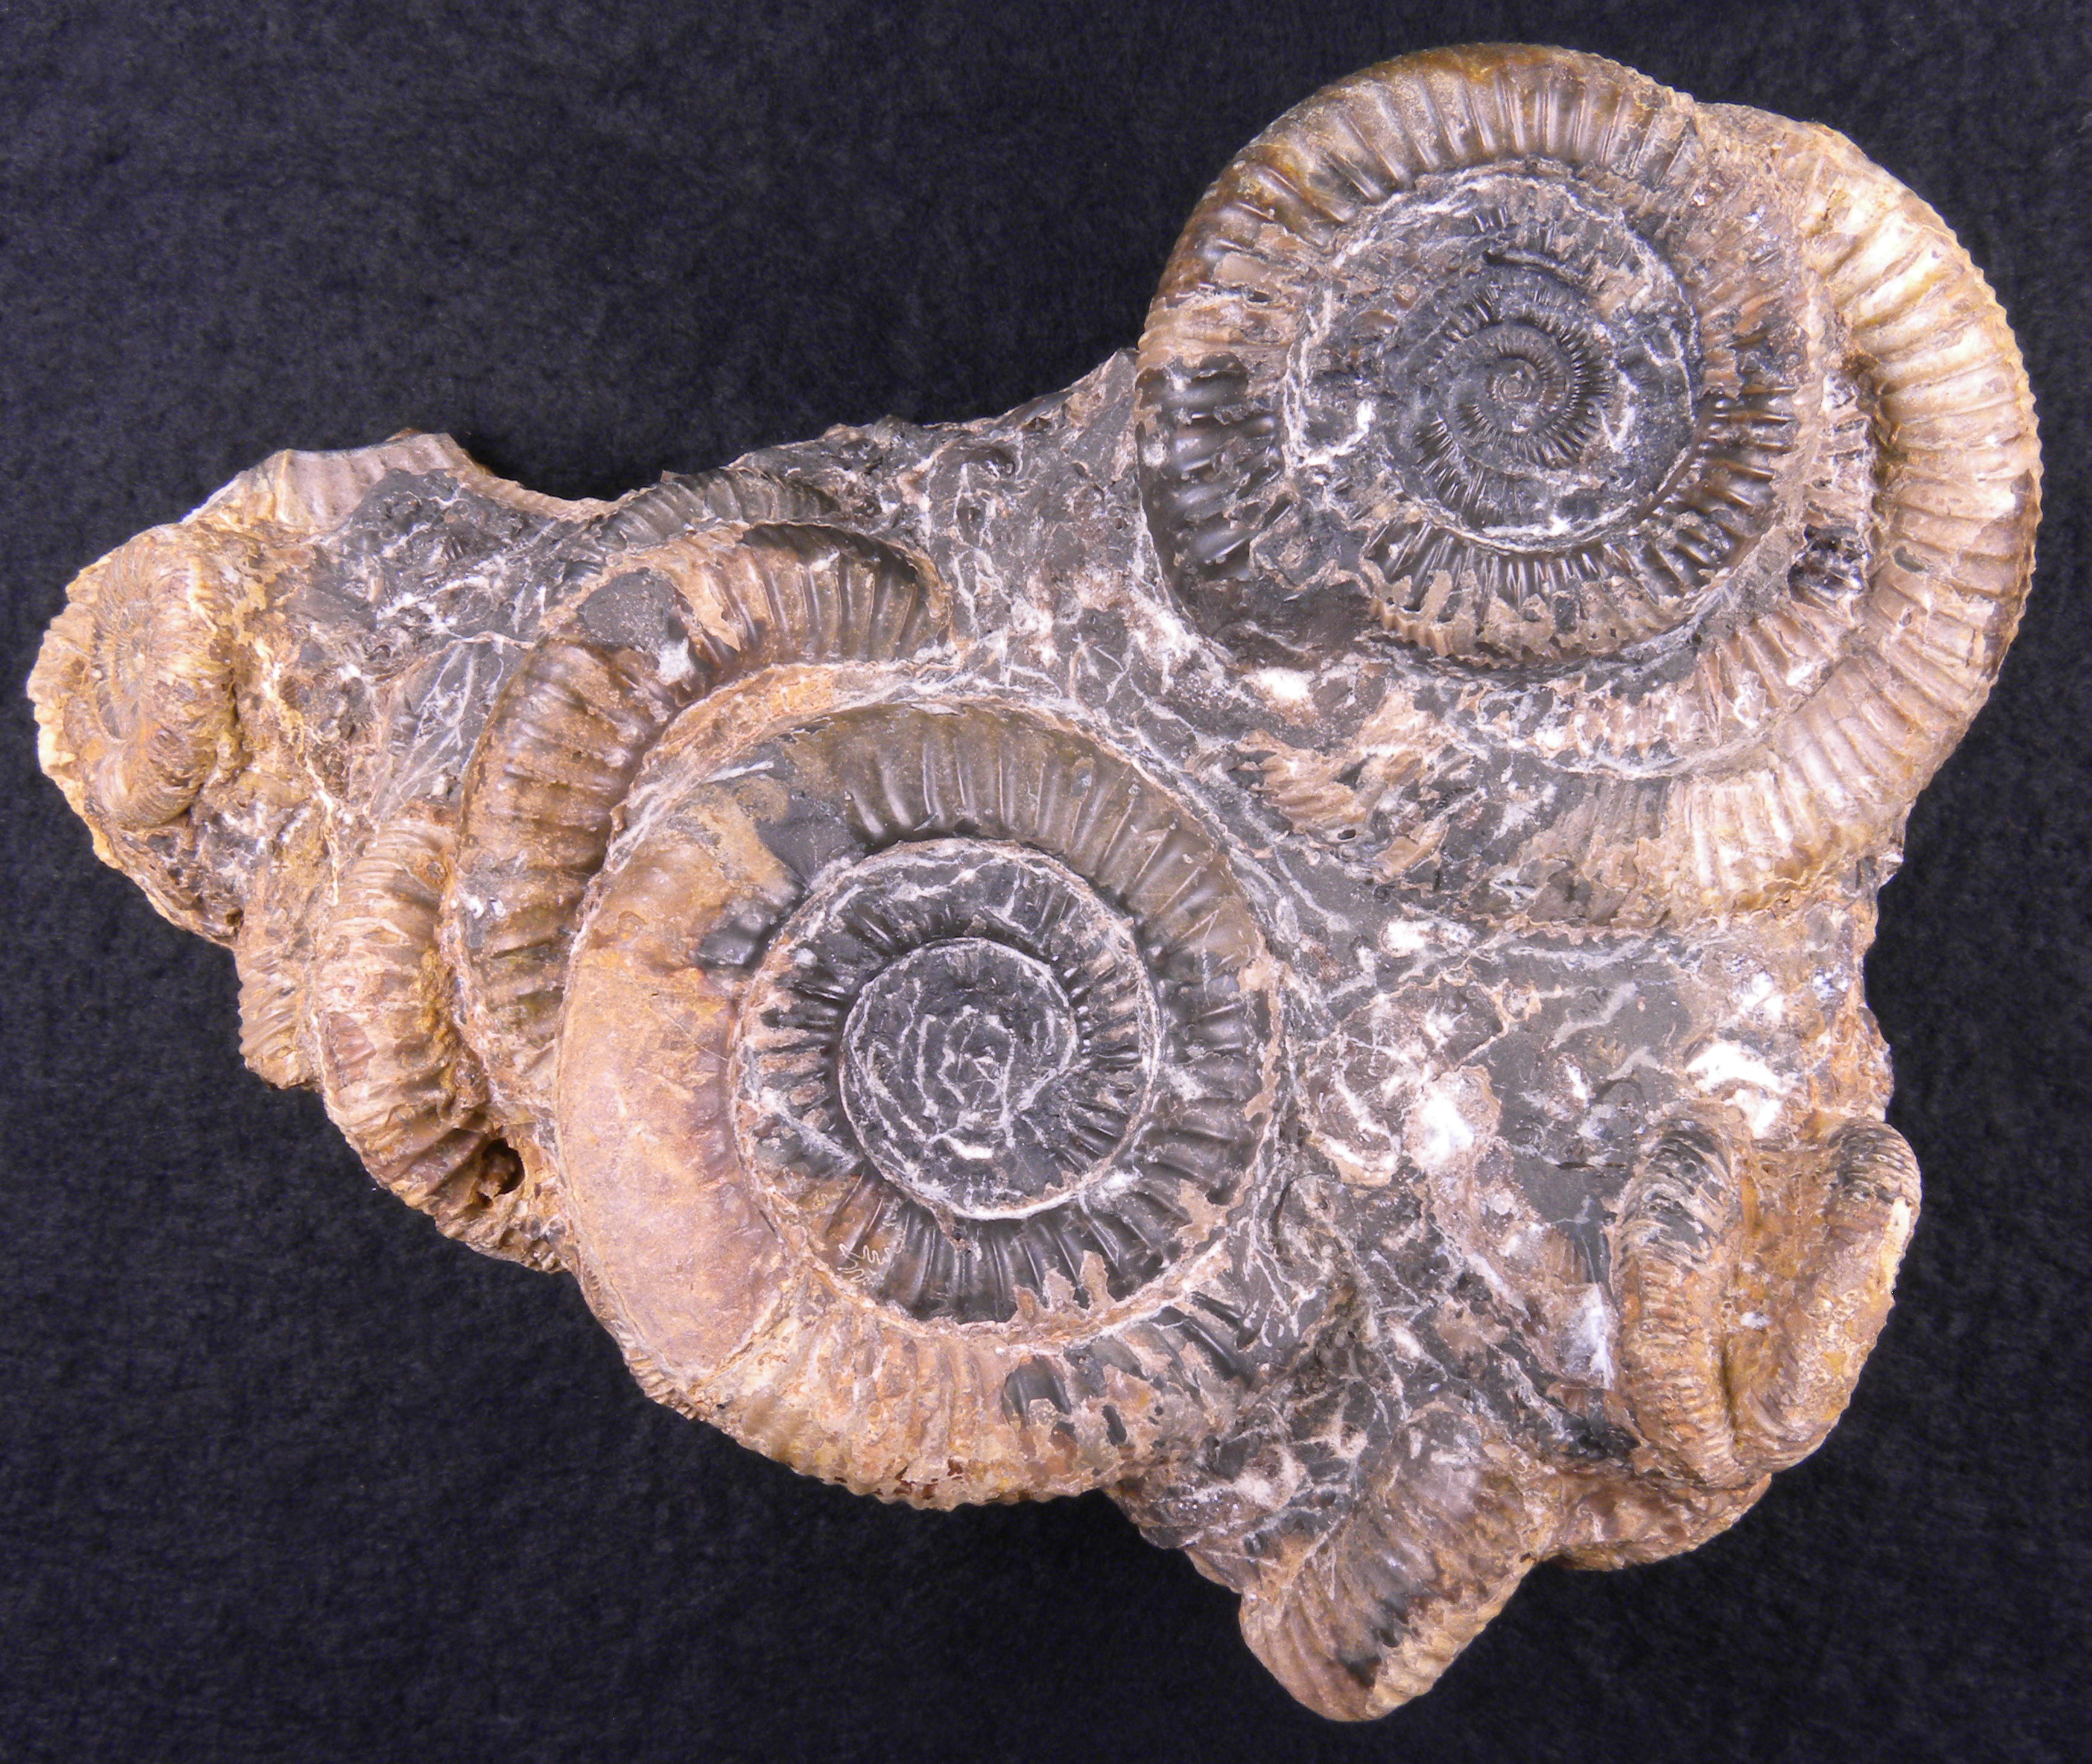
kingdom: Animalia
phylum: Mollusca
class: Cephalopoda
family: Dactylioceratidae
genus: Dactylioceras
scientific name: Dactylioceras
